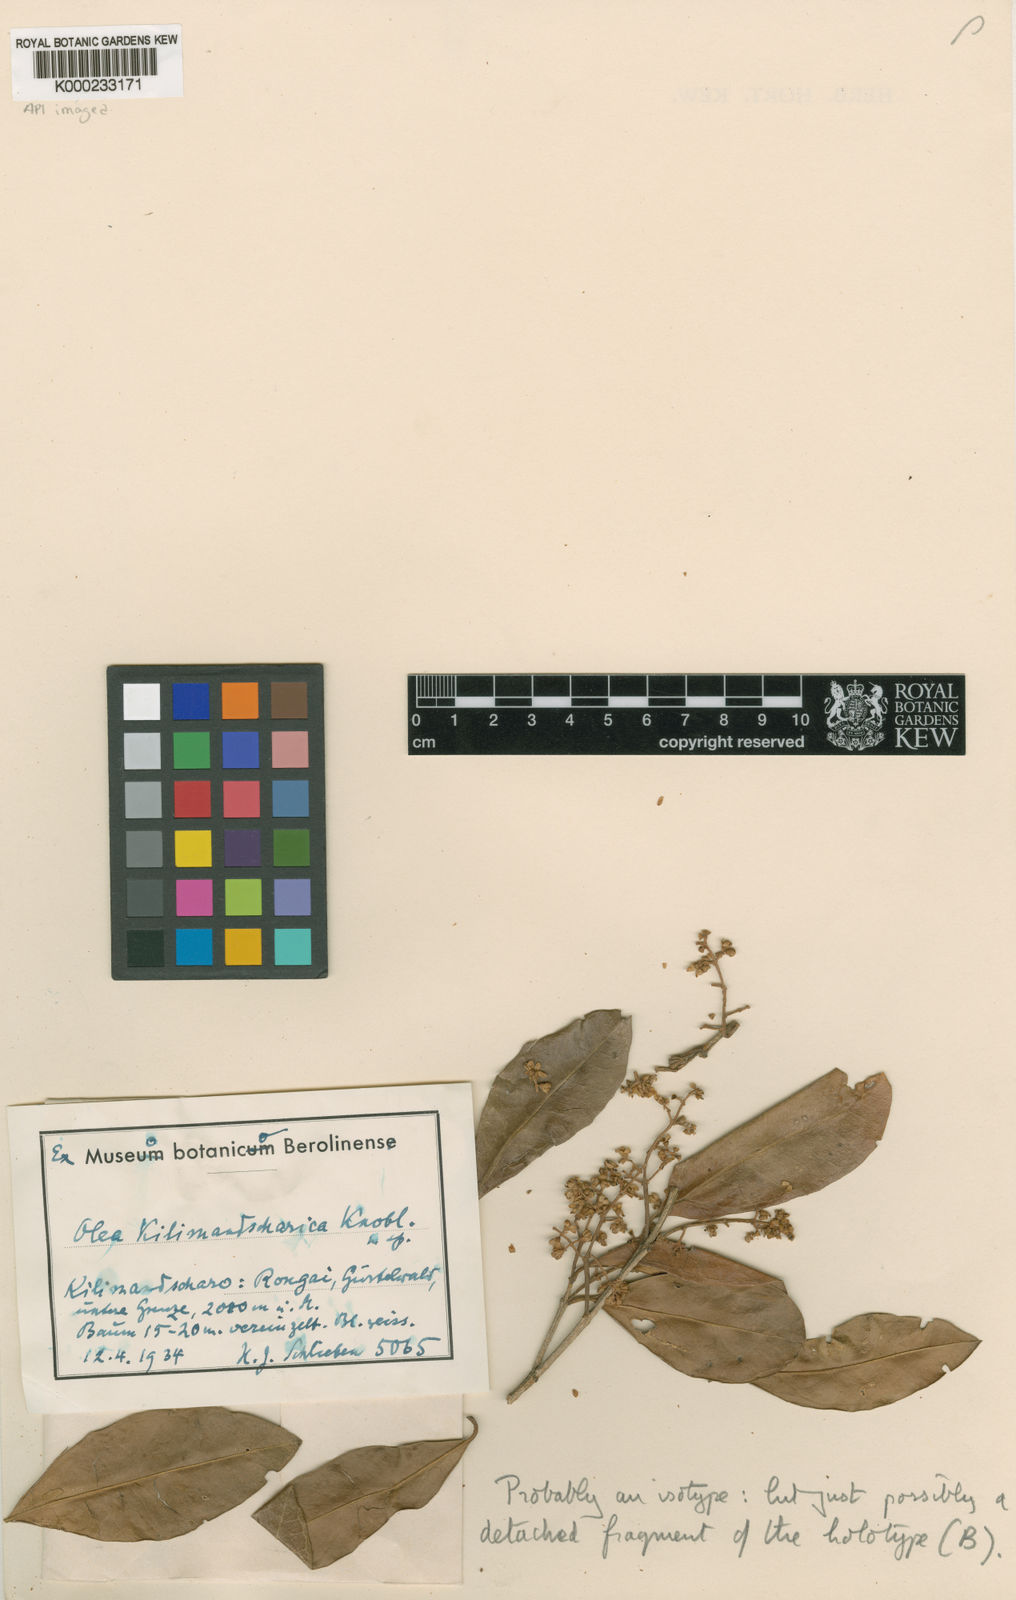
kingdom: Plantae
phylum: Tracheophyta
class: Magnoliopsida
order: Lamiales
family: Oleaceae
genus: Olea
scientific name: Olea europaea
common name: Olive
